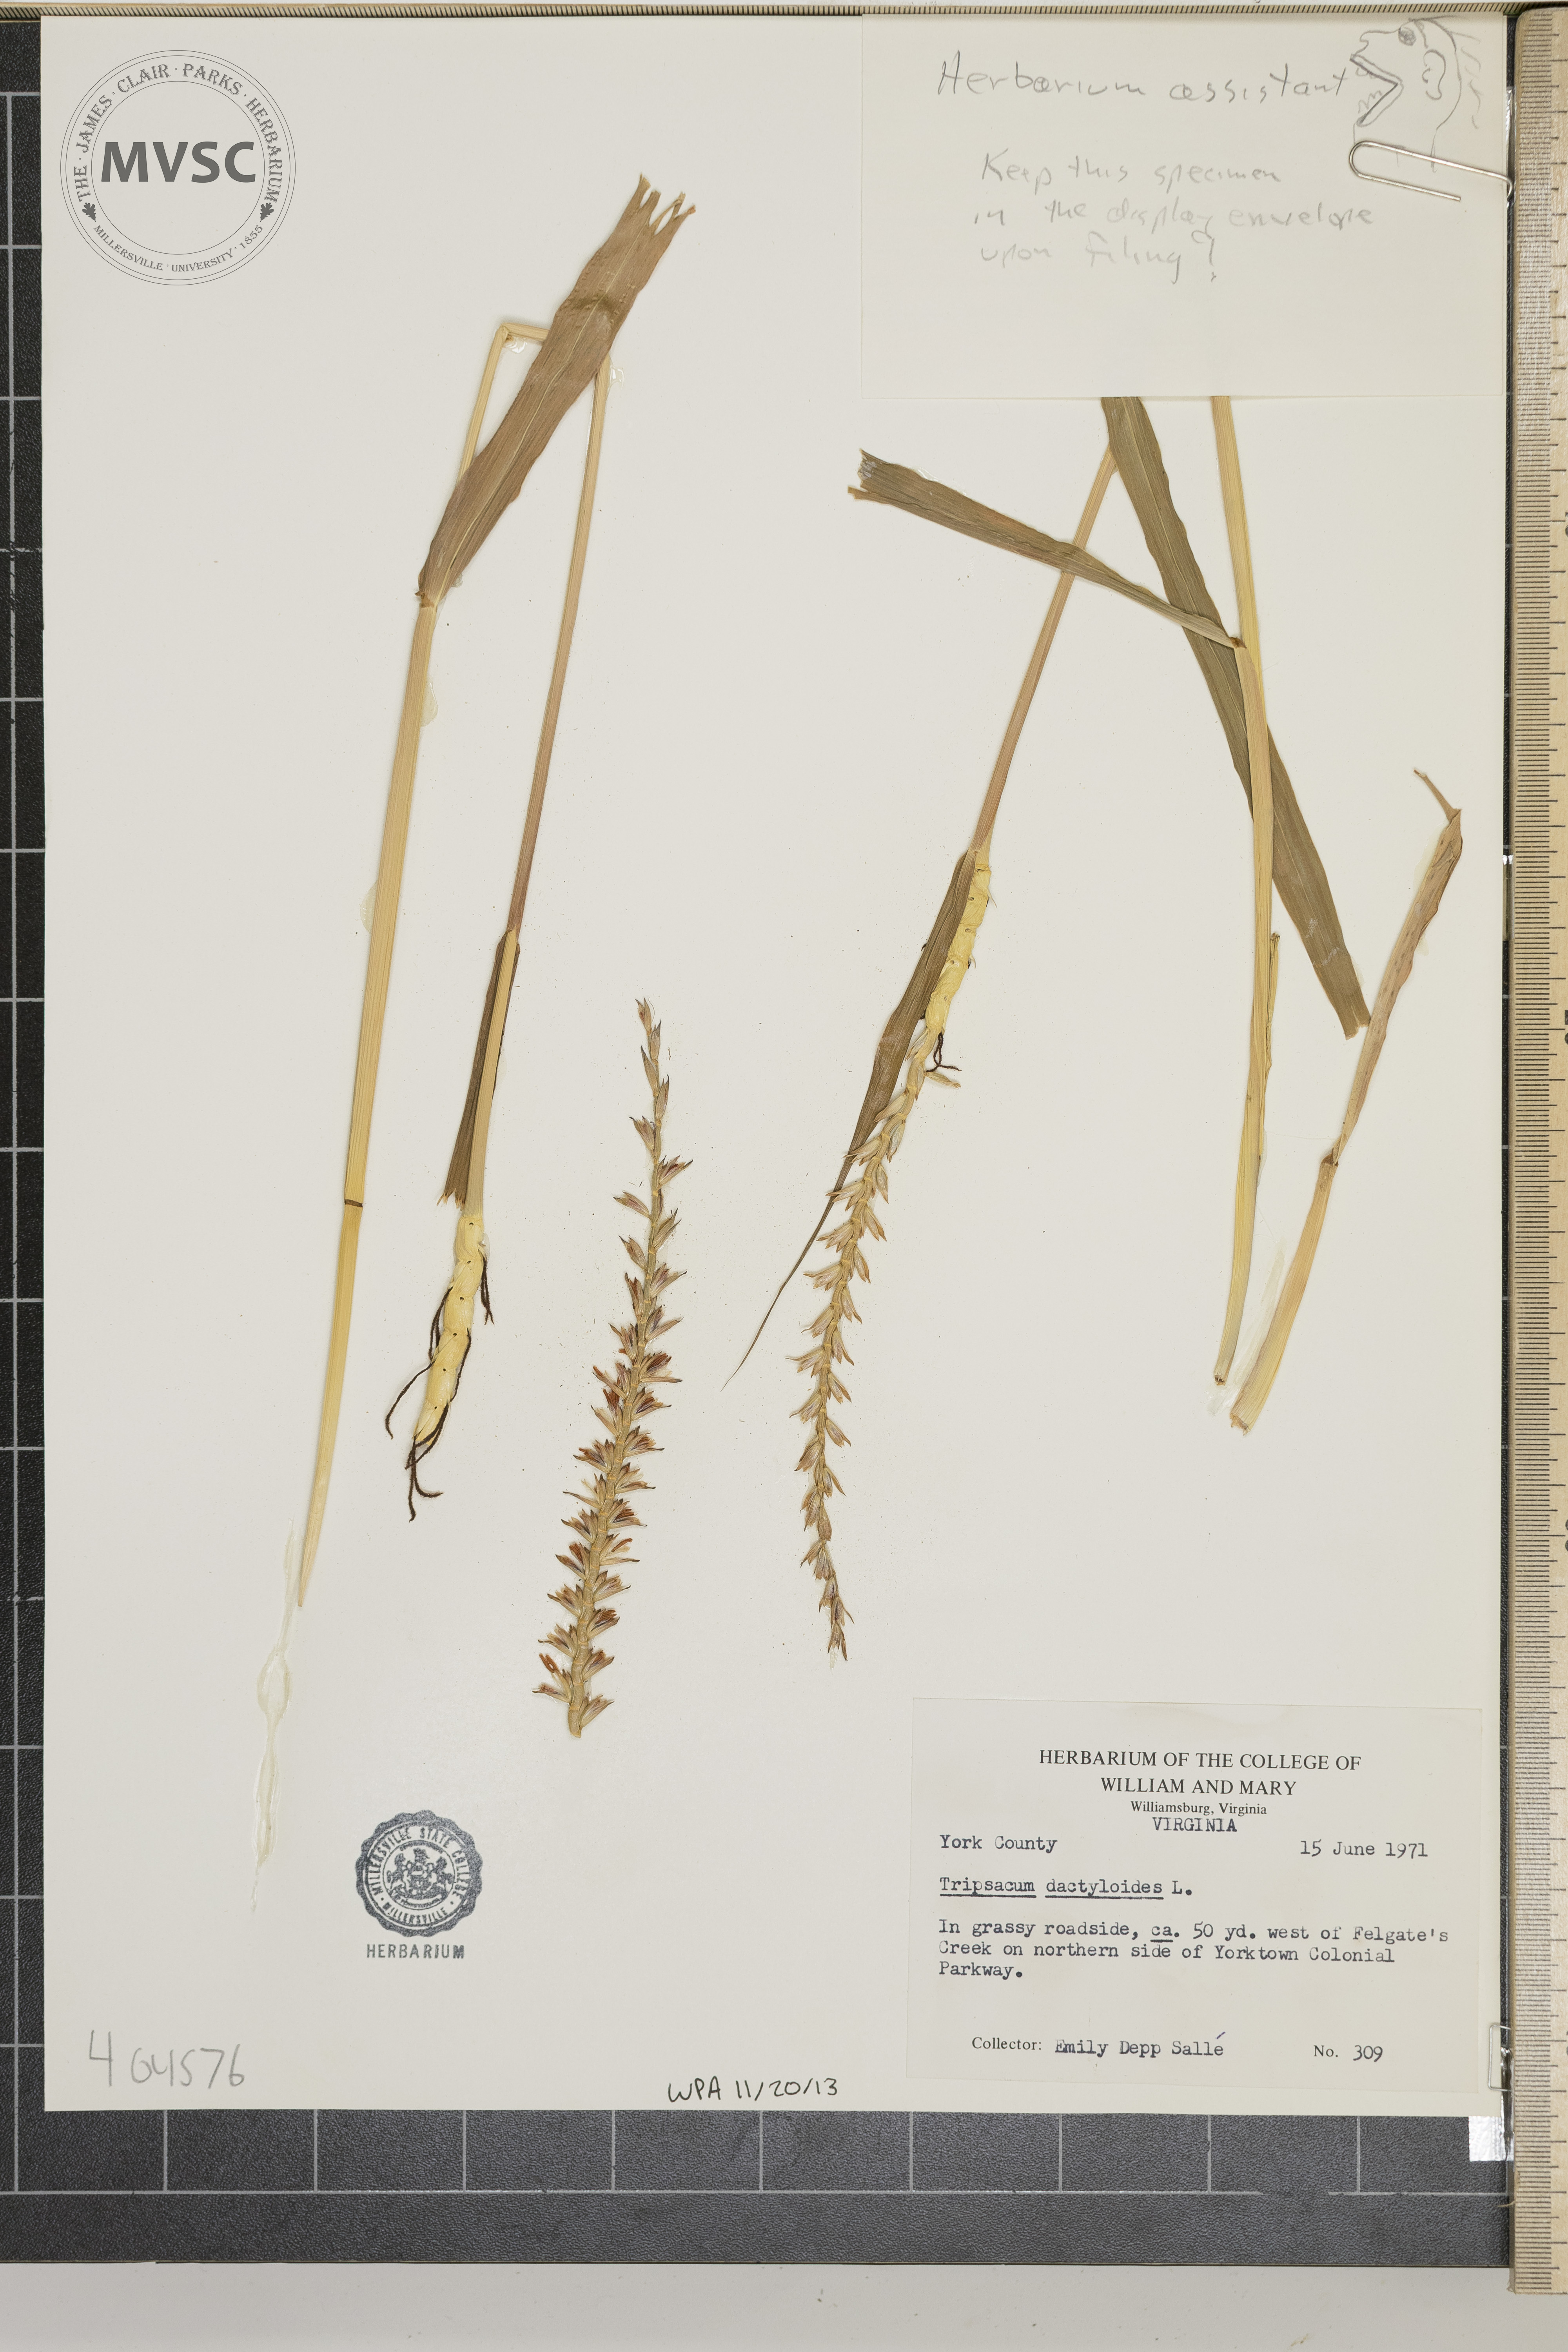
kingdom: Plantae
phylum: Tracheophyta
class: Liliopsida
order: Poales
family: Poaceae
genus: Tripsacum
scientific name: Tripsacum dactyloides
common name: Buffalo-grass
